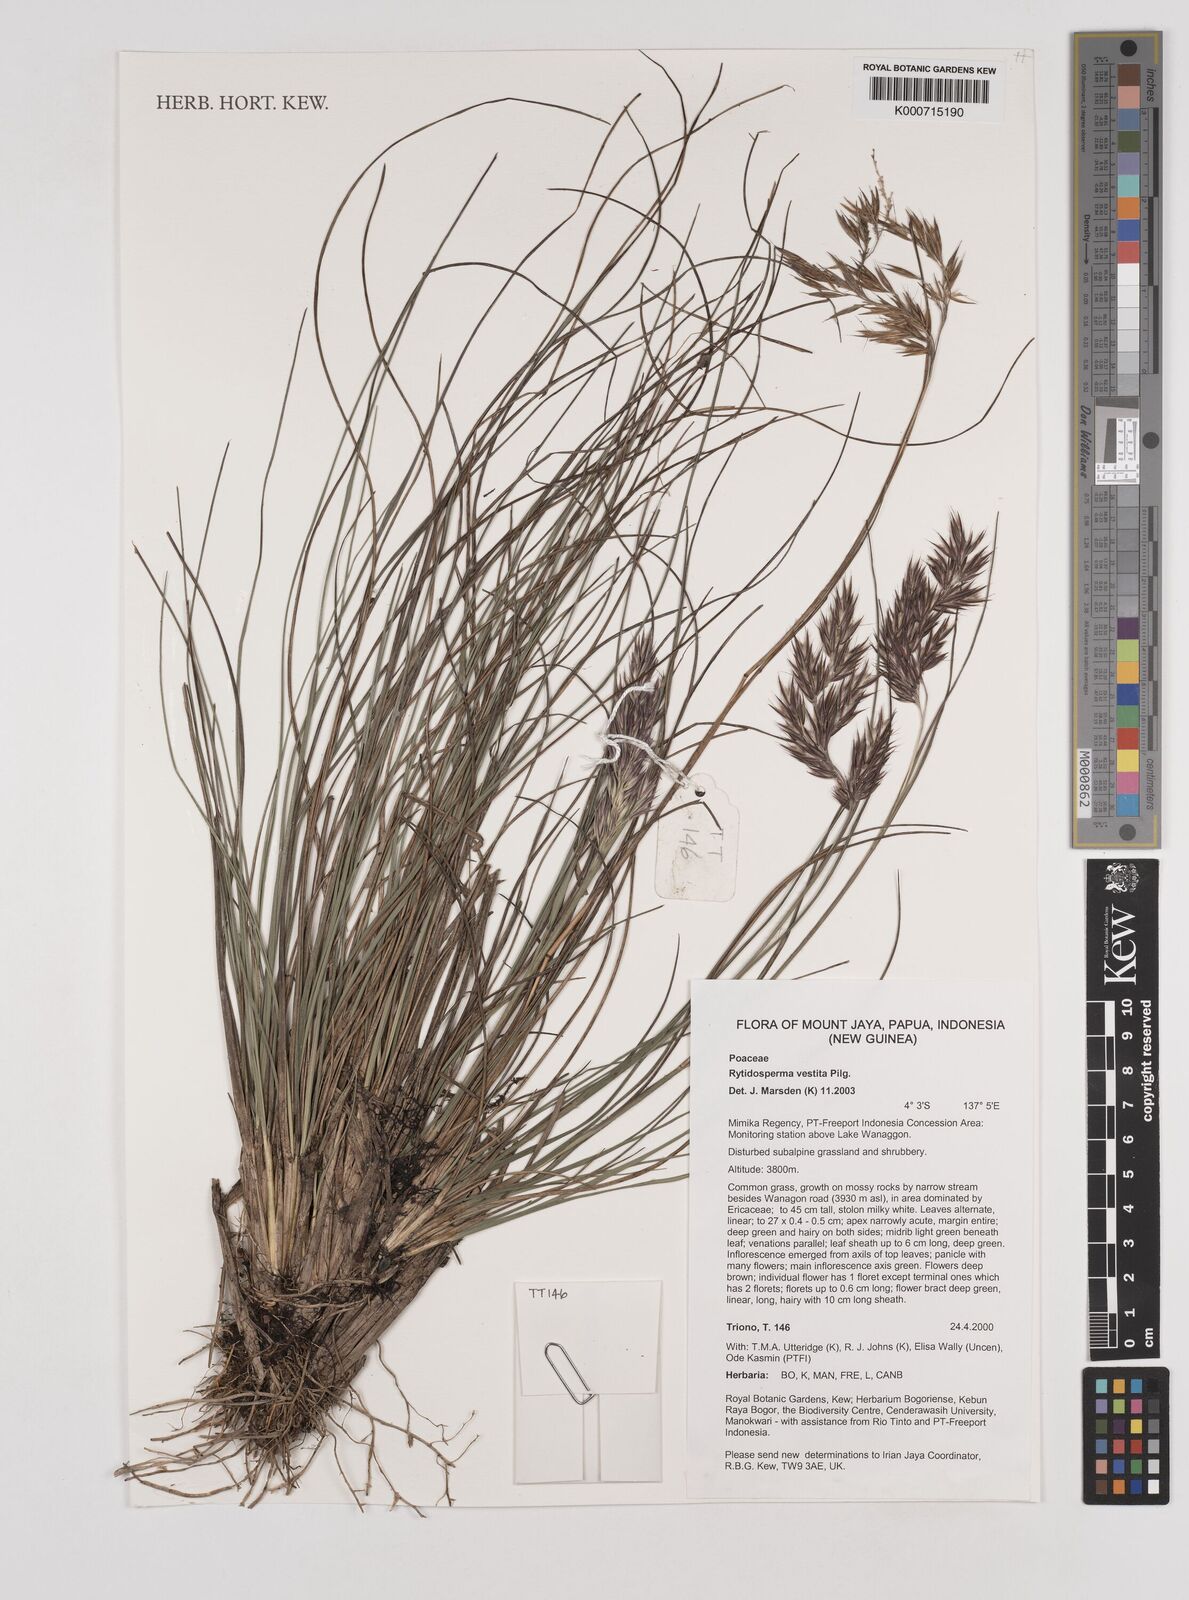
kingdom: Plantae
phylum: Tracheophyta
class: Liliopsida
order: Poales
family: Poaceae
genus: Rytidosperma
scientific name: Rytidosperma vestitum
